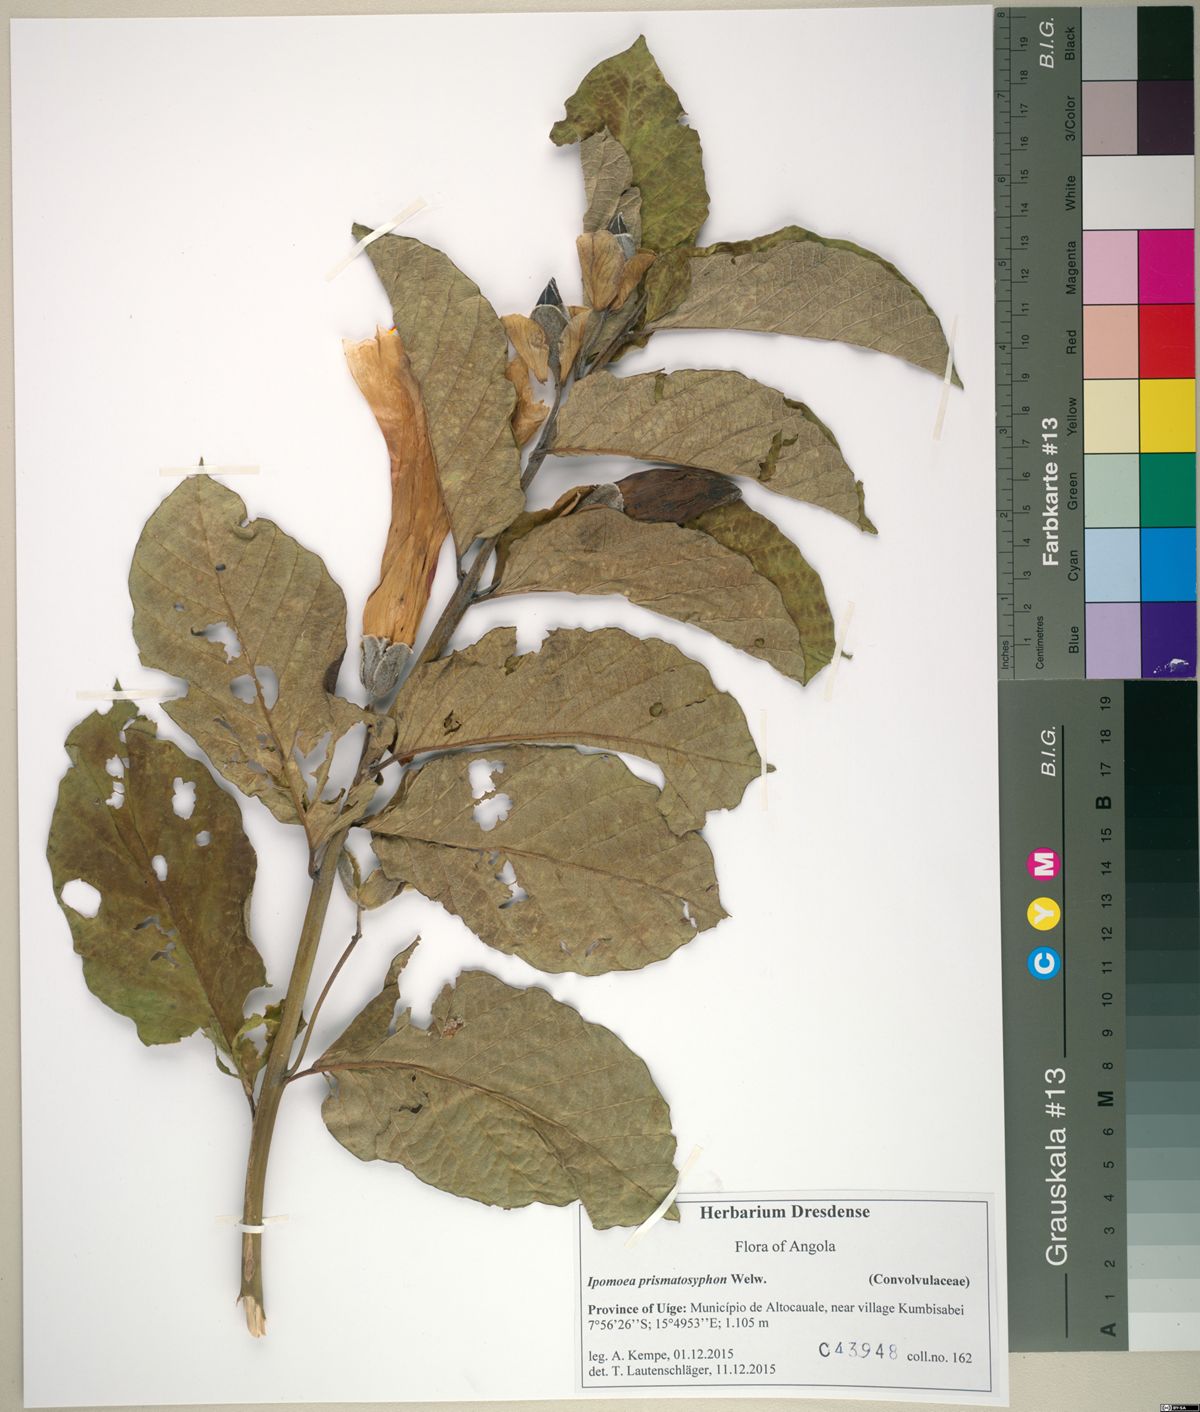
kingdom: Plantae
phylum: Tracheophyta
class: Magnoliopsida
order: Solanales
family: Convolvulaceae
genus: Ipomoea
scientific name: Ipomoea prismatosyphon
